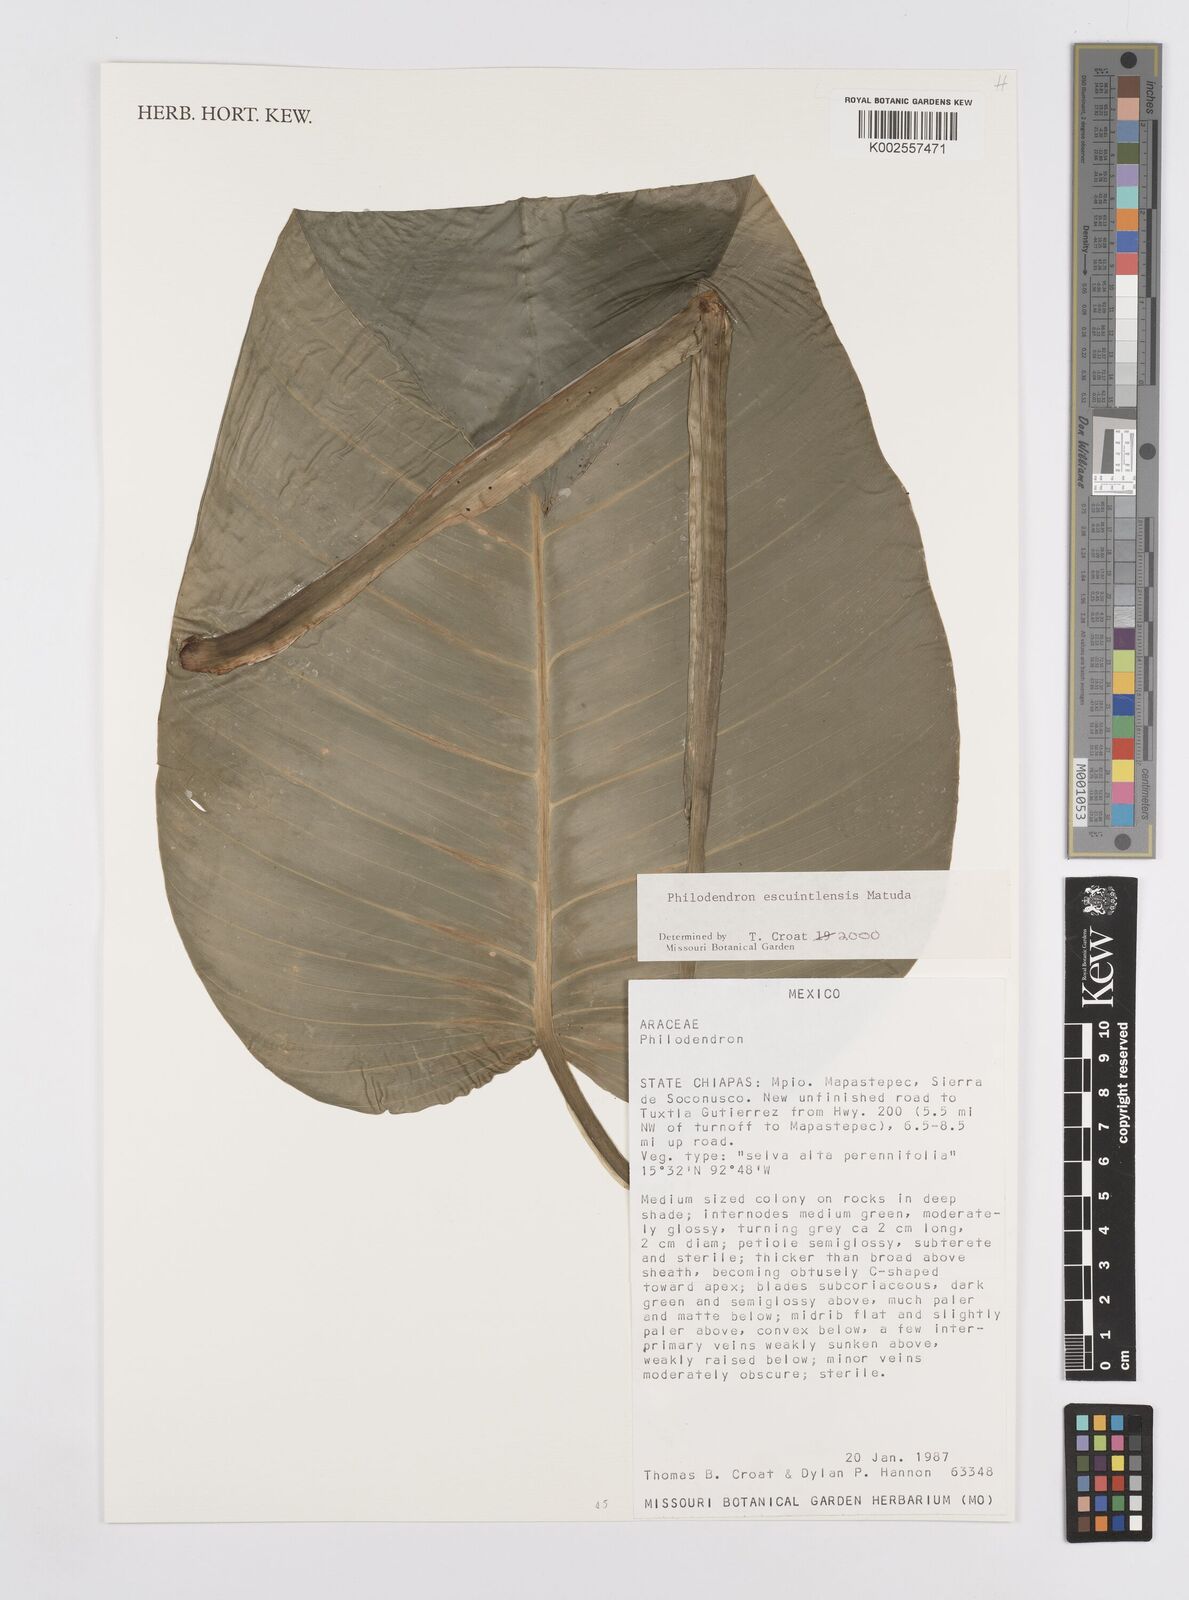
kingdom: Plantae
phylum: Tracheophyta
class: Liliopsida
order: Alismatales
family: Araceae
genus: Philodendron
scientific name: Philodendron escuintlense
